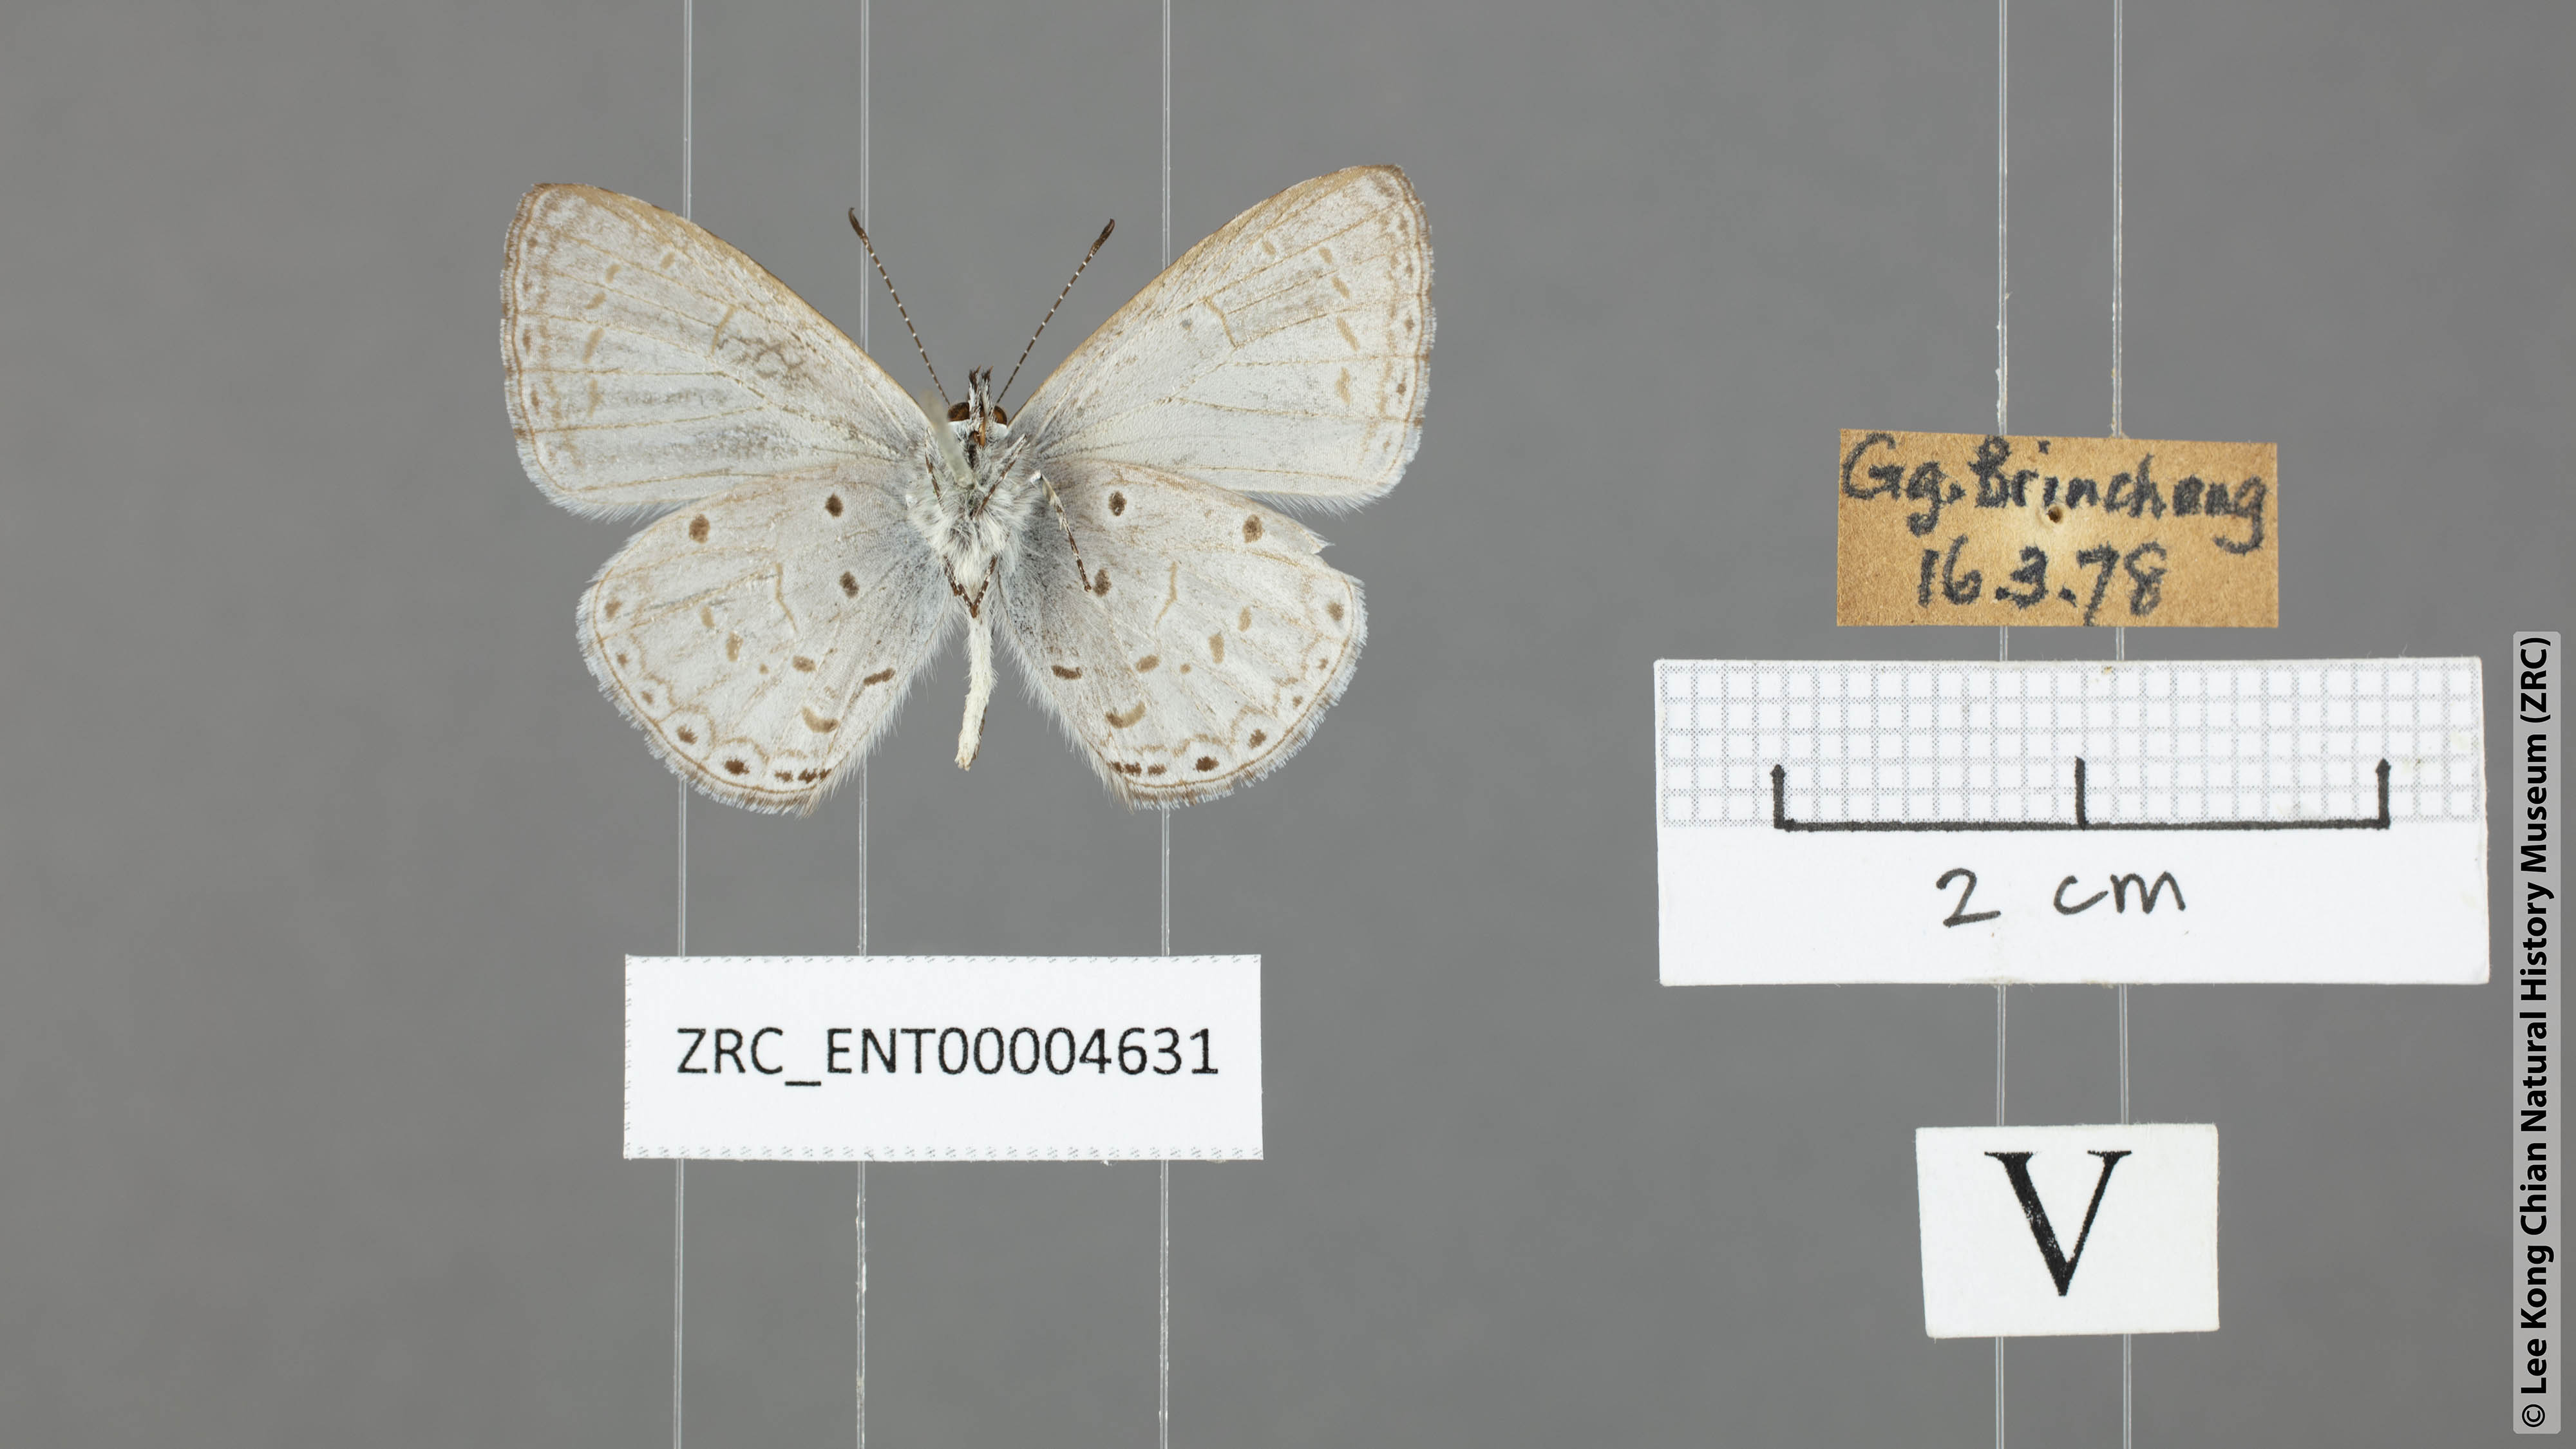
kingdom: Animalia
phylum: Arthropoda
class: Insecta
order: Lepidoptera
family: Lycaenidae
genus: Udara
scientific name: Udara
